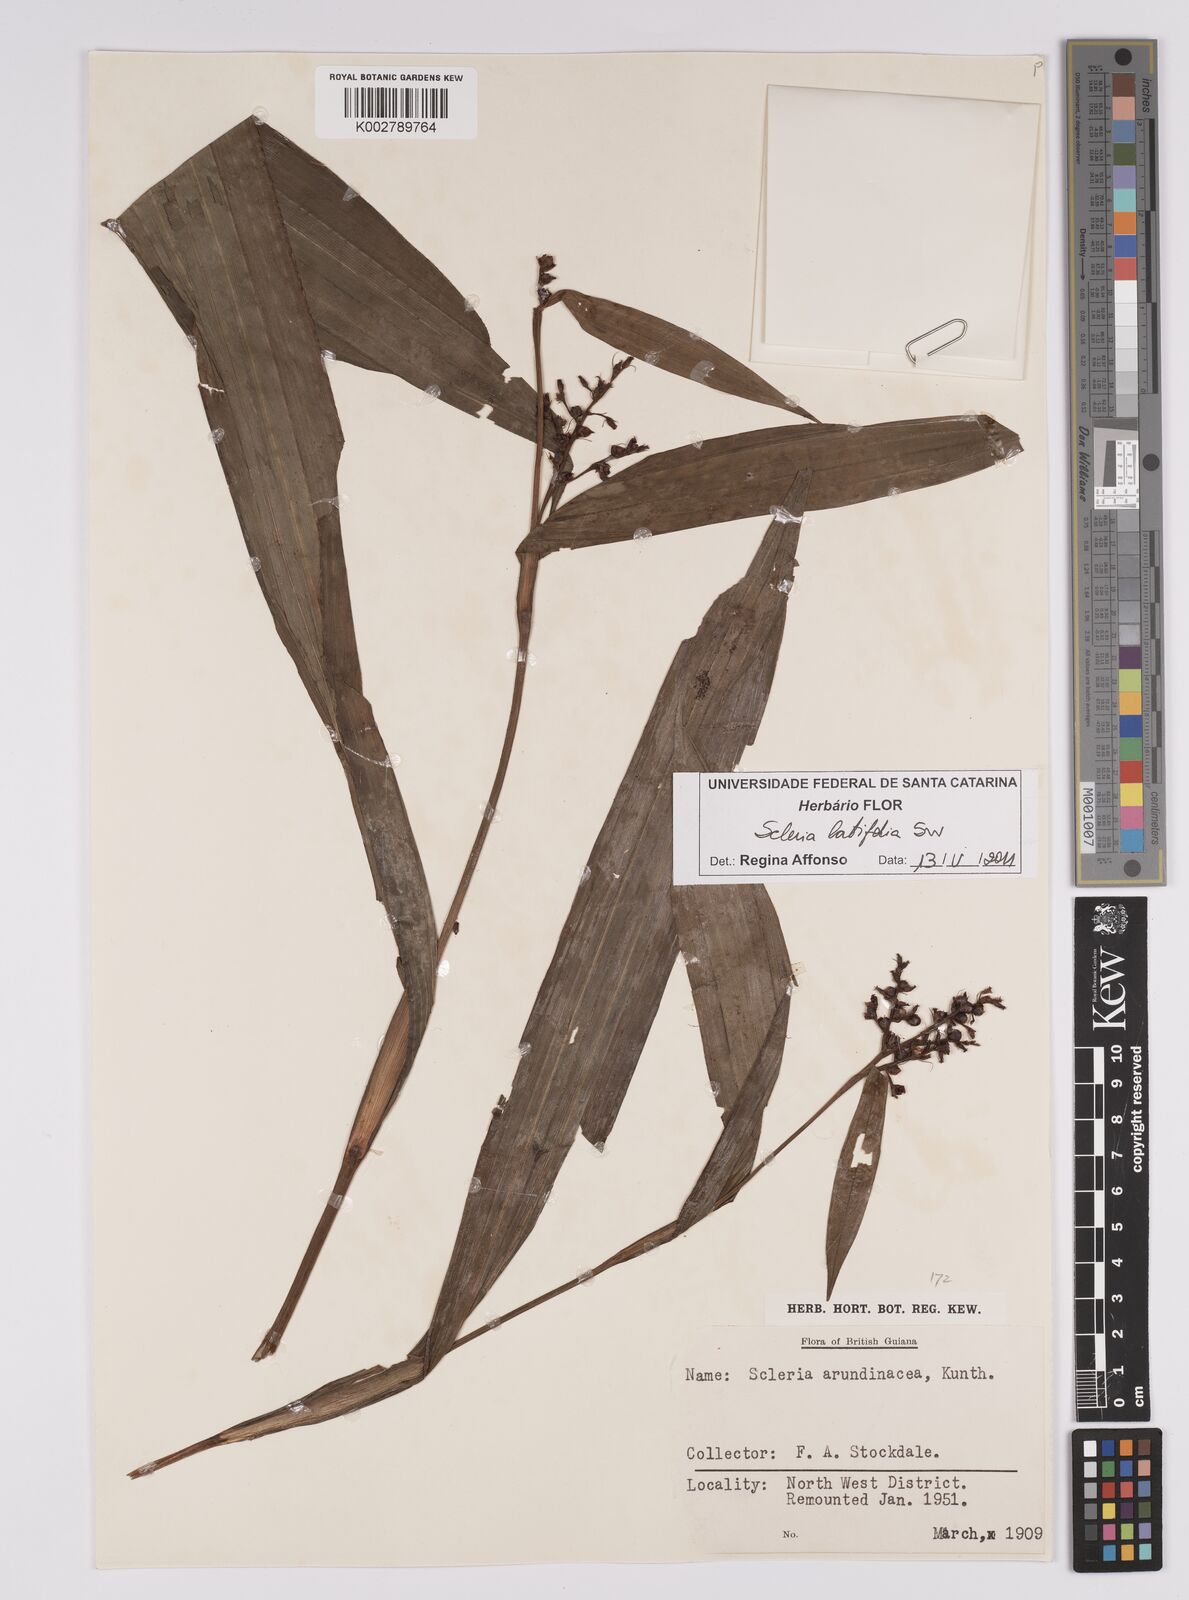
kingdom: Plantae
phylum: Tracheophyta
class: Liliopsida
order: Poales
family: Cyperaceae
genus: Scleria
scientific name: Scleria latifolia
